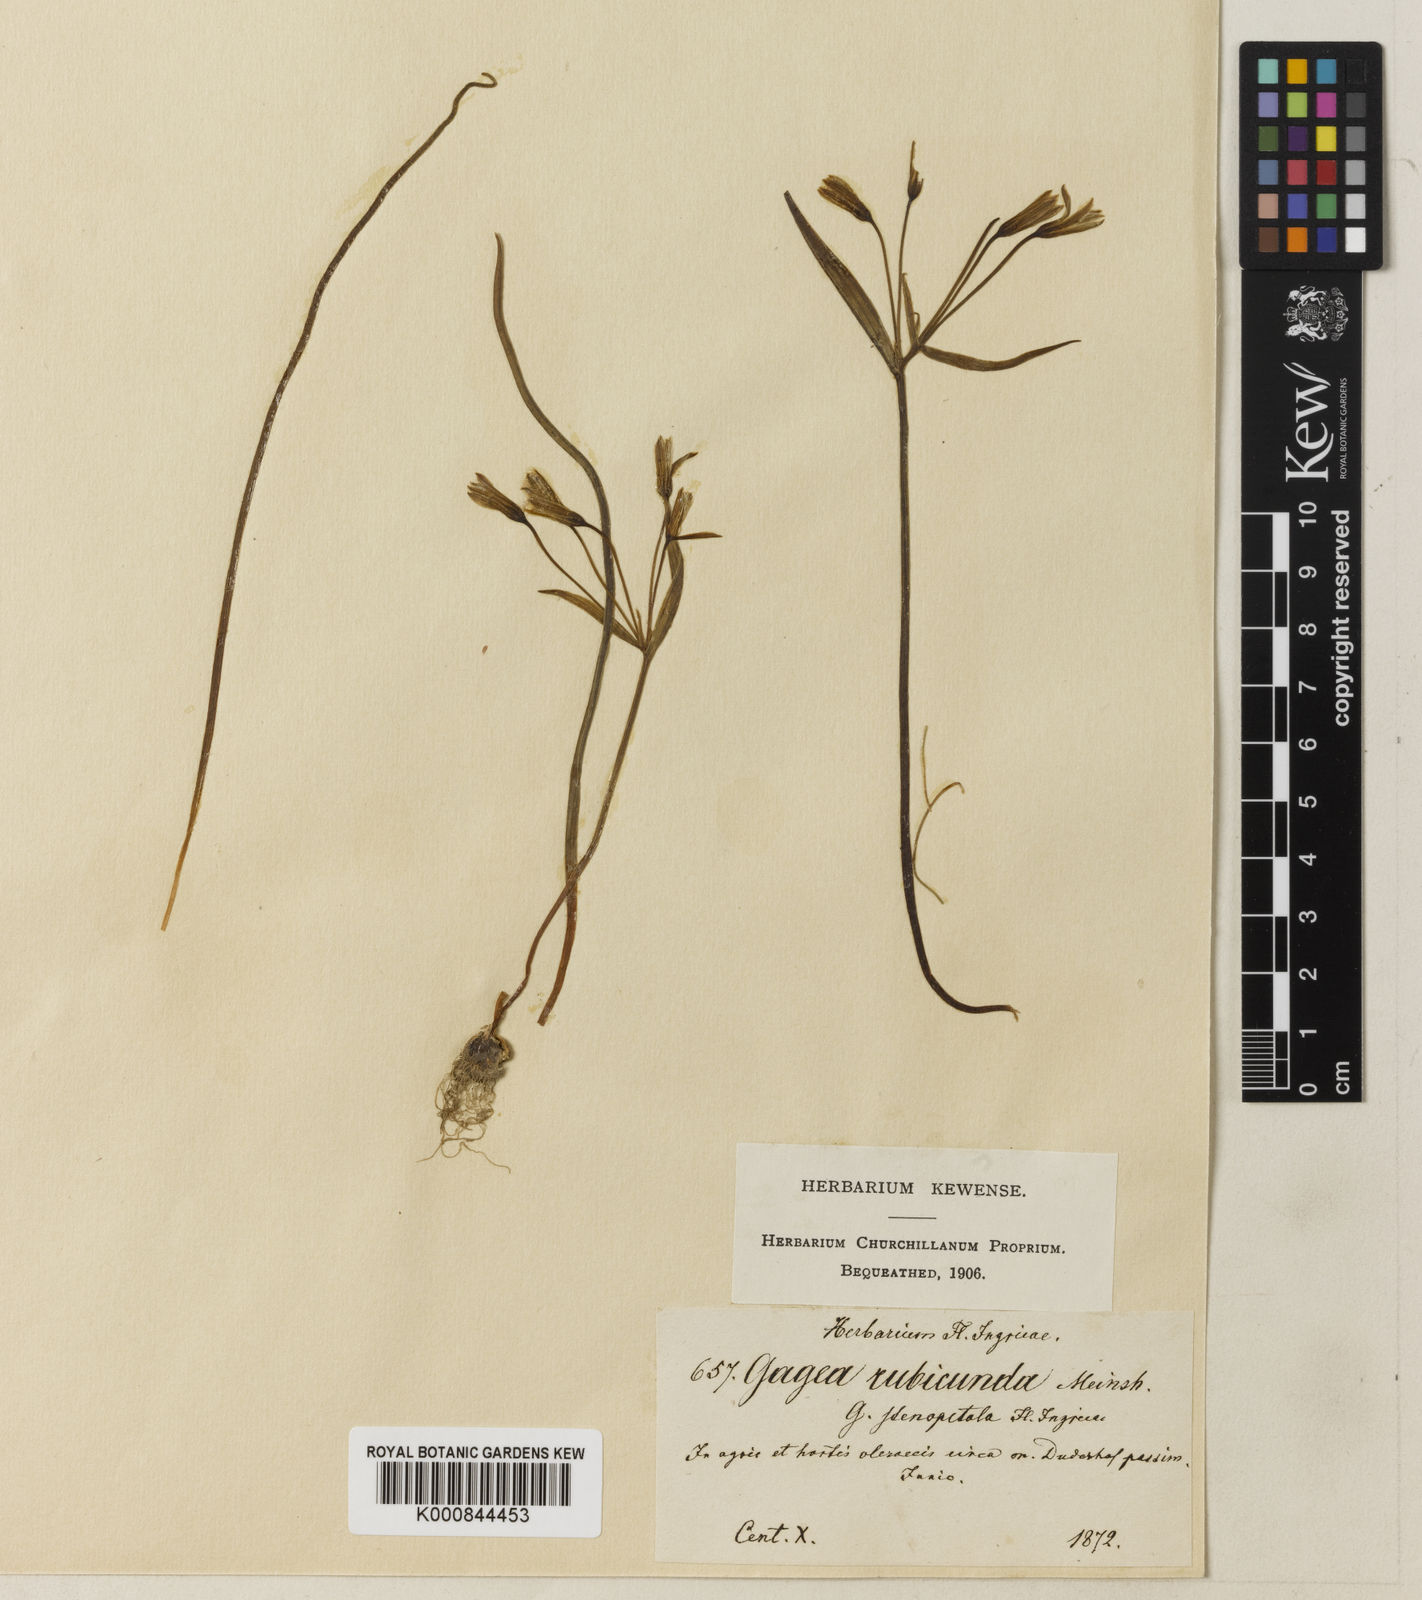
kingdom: Plantae
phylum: Tracheophyta
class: Liliopsida
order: Liliales
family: Liliaceae
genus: Gagea
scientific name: Gagea fragifera
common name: Lily
